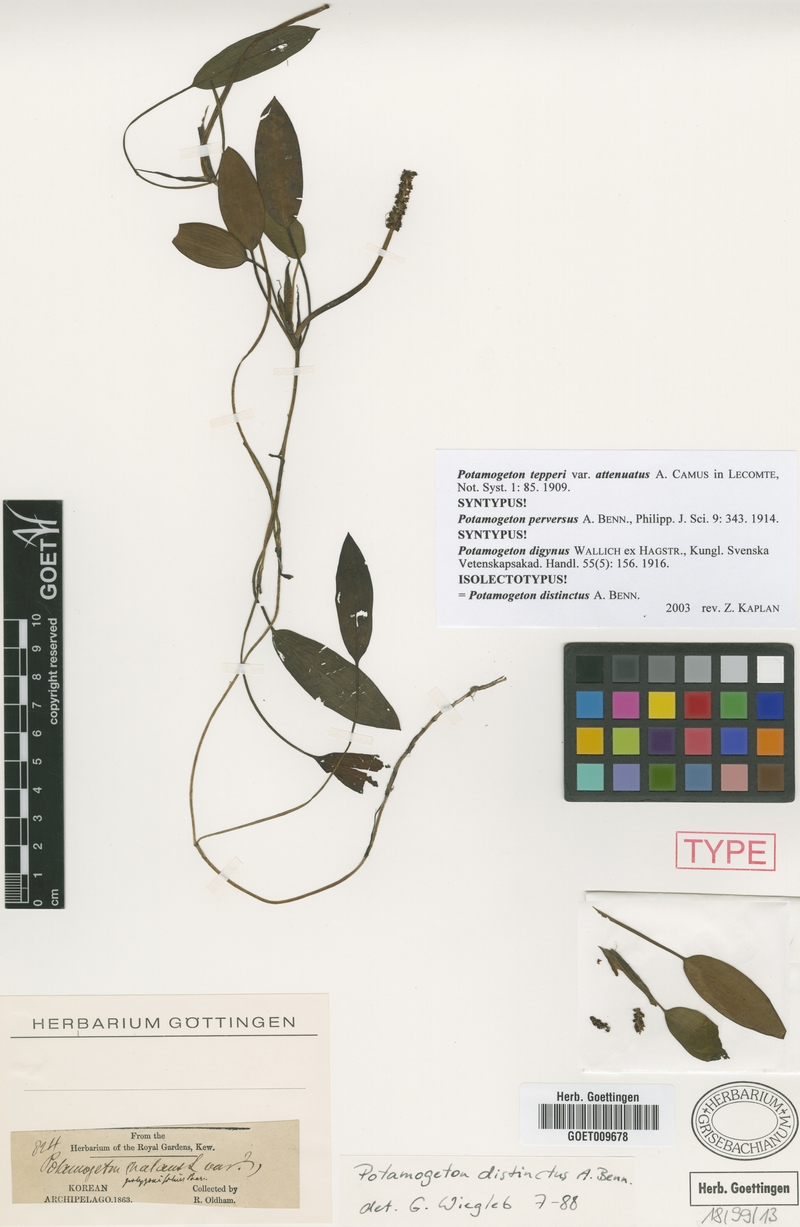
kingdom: Plantae
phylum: Tracheophyta
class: Liliopsida
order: Alismatales
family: Potamogetonaceae
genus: Potamogeton
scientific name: Potamogeton distinctus
